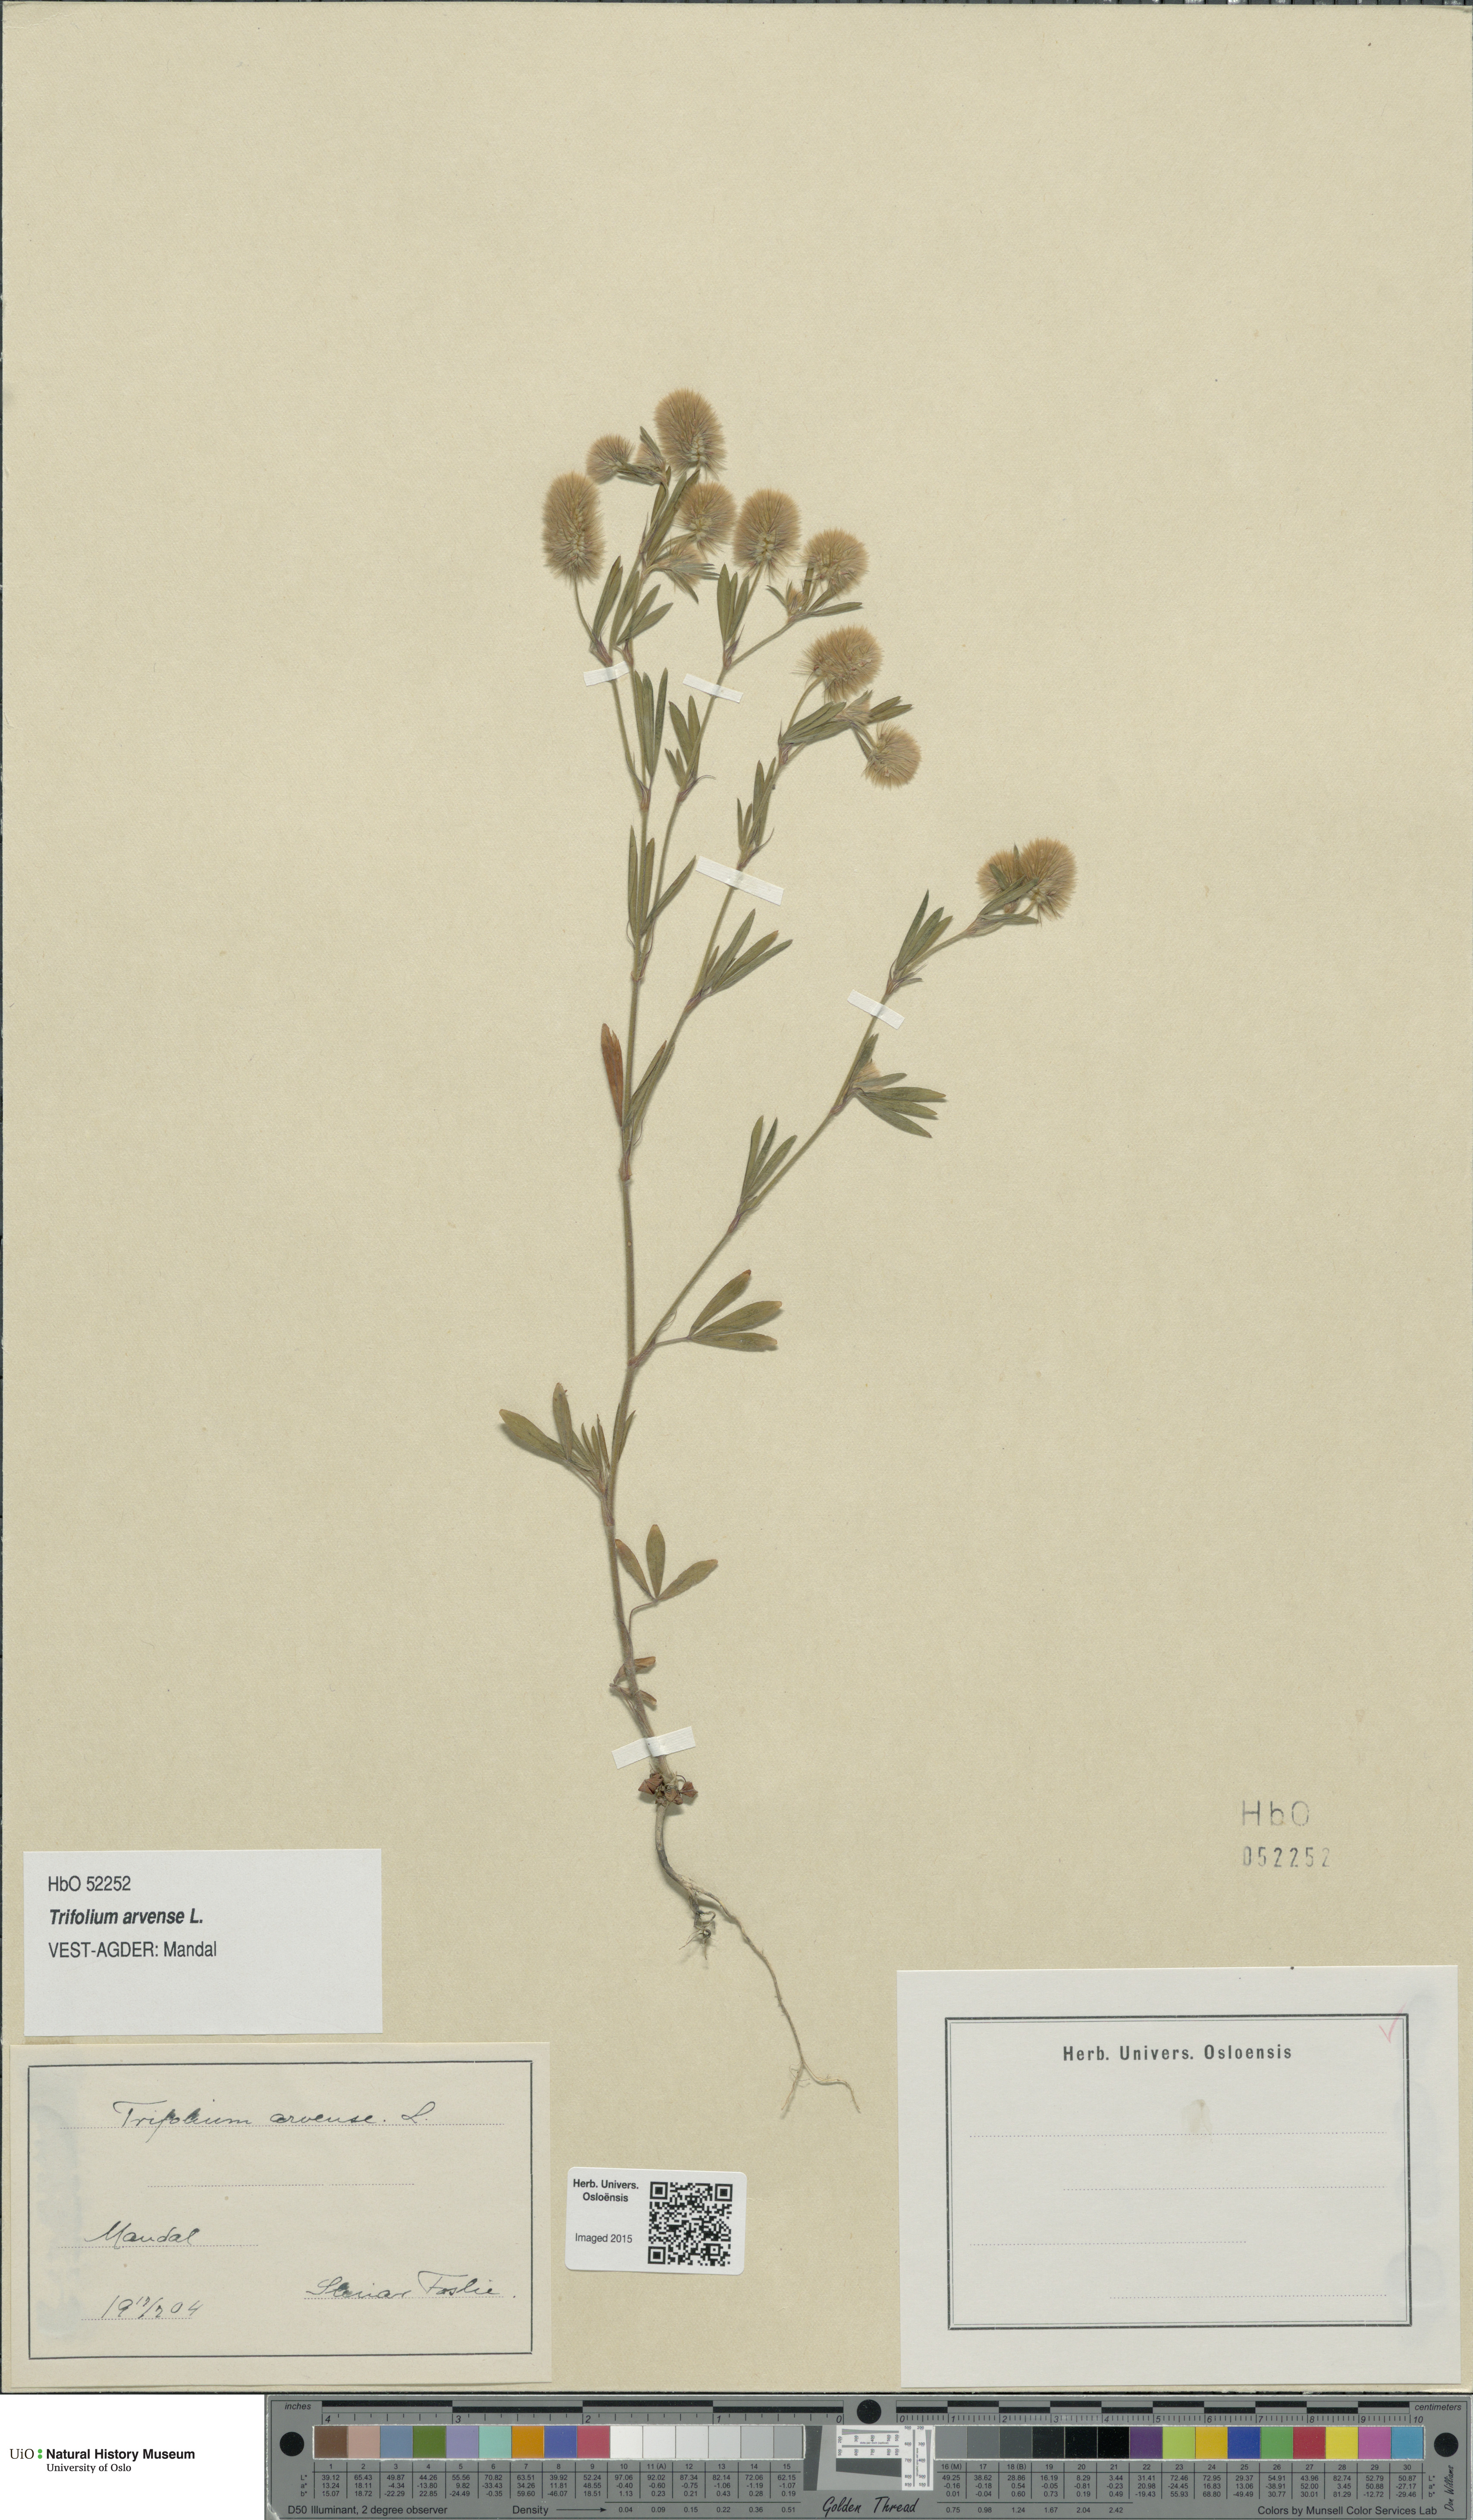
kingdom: Plantae
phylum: Tracheophyta
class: Magnoliopsida
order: Fabales
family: Fabaceae
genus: Trifolium
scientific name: Trifolium arvense
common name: Hare's-foot clover
